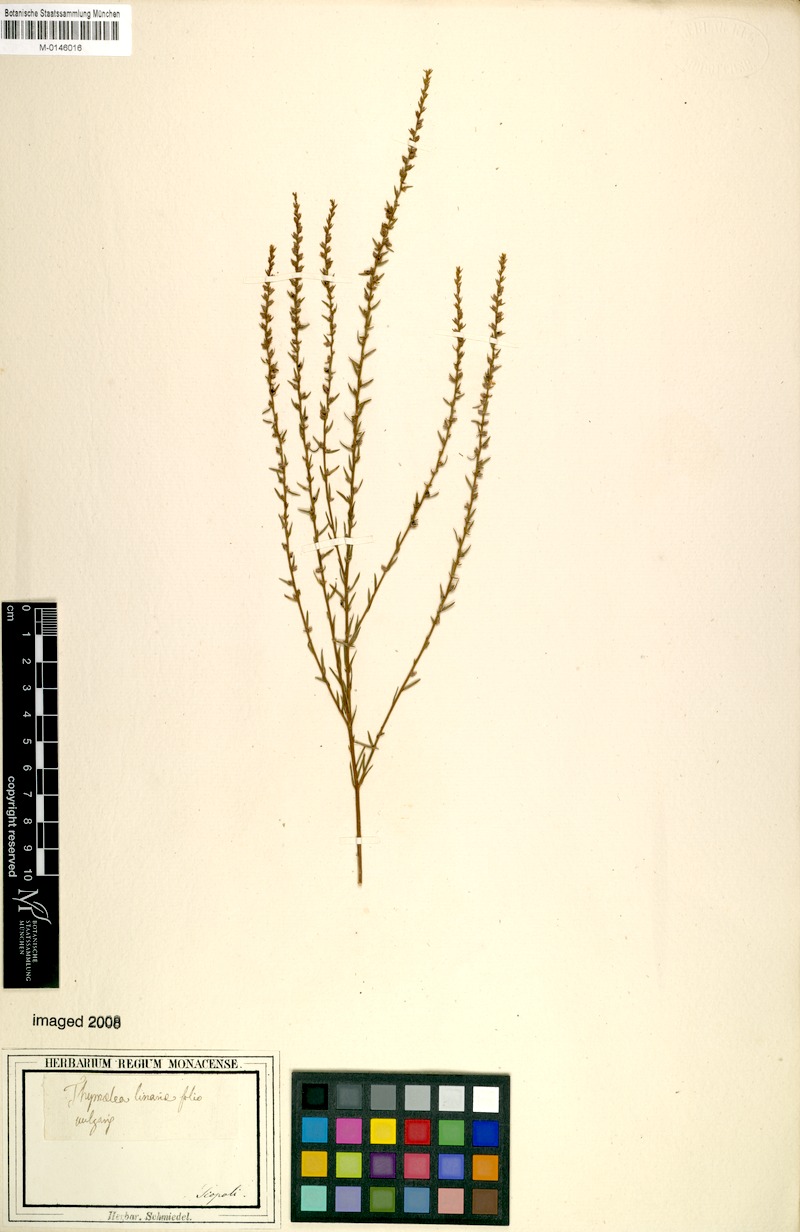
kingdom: Plantae
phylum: Tracheophyta
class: Magnoliopsida
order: Malvales
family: Thymelaeaceae
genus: Thymelaea
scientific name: Thymelaea passerina
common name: Annual thymelaea
